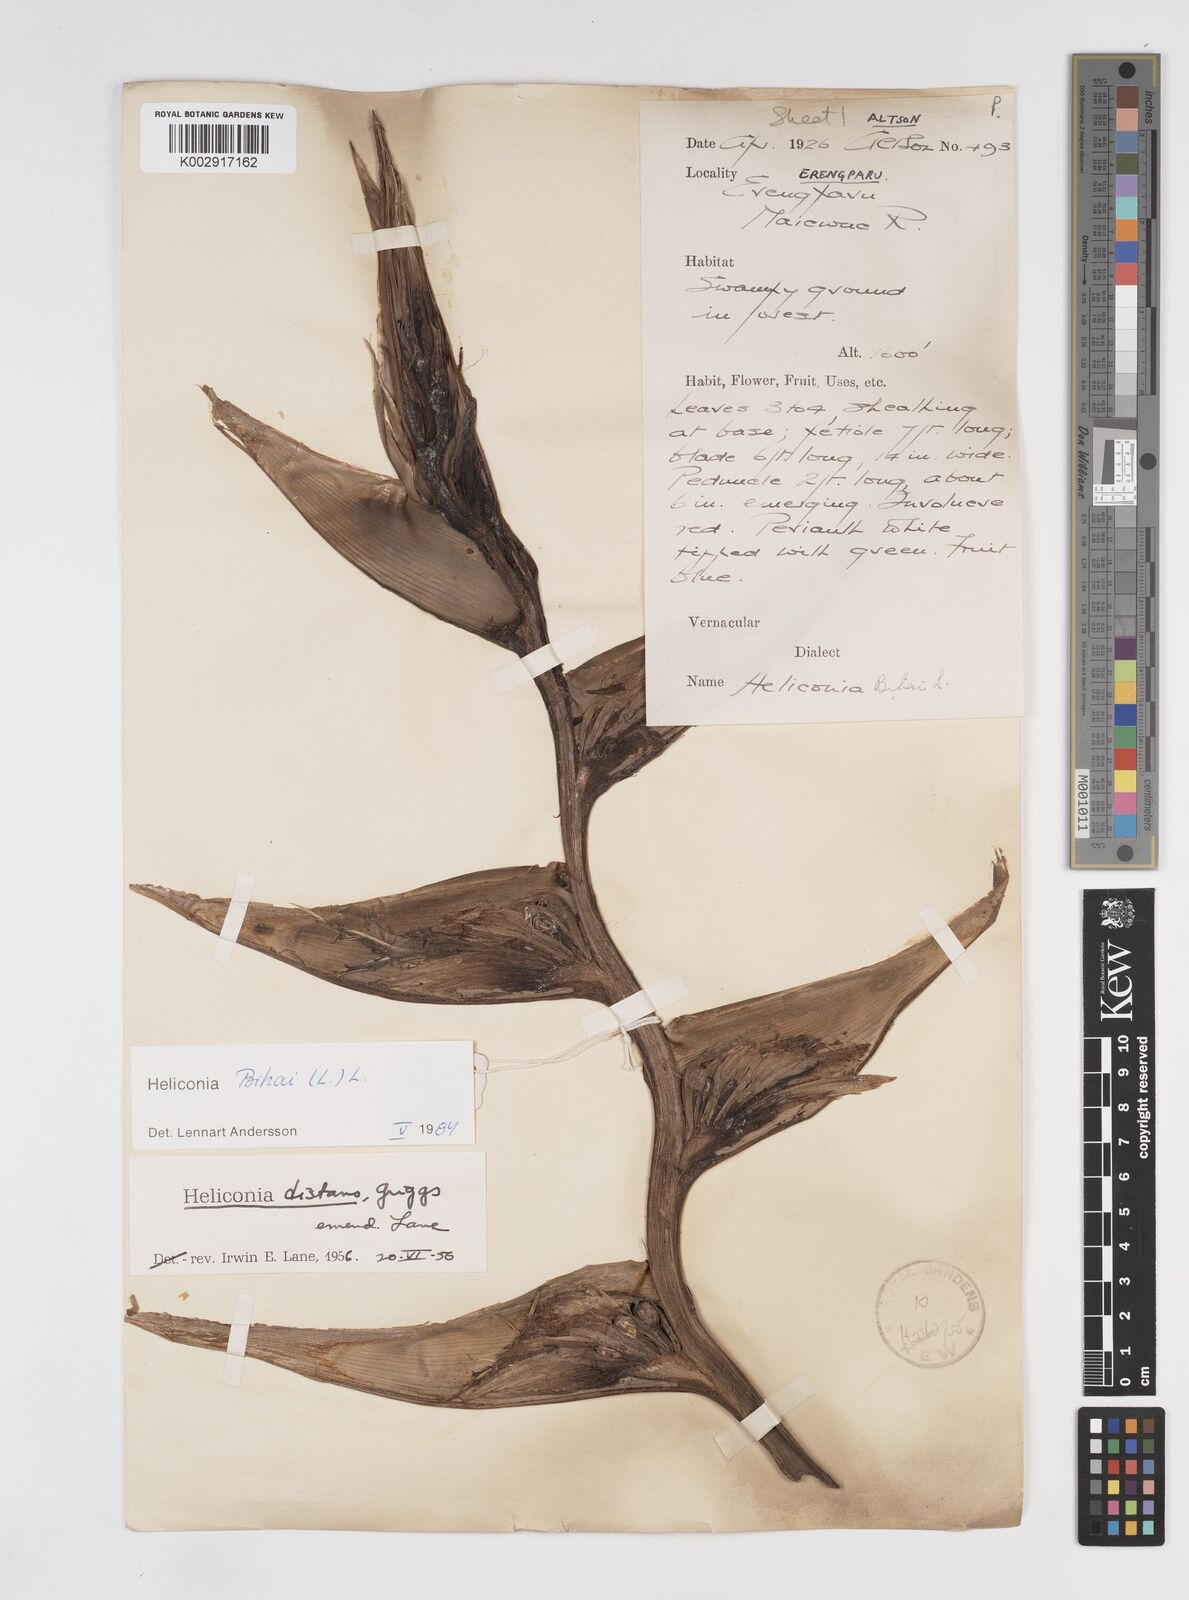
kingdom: Plantae
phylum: Tracheophyta
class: Liliopsida
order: Zingiberales
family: Heliconiaceae
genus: Heliconia
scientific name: Heliconia bihai
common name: Macaw flower
